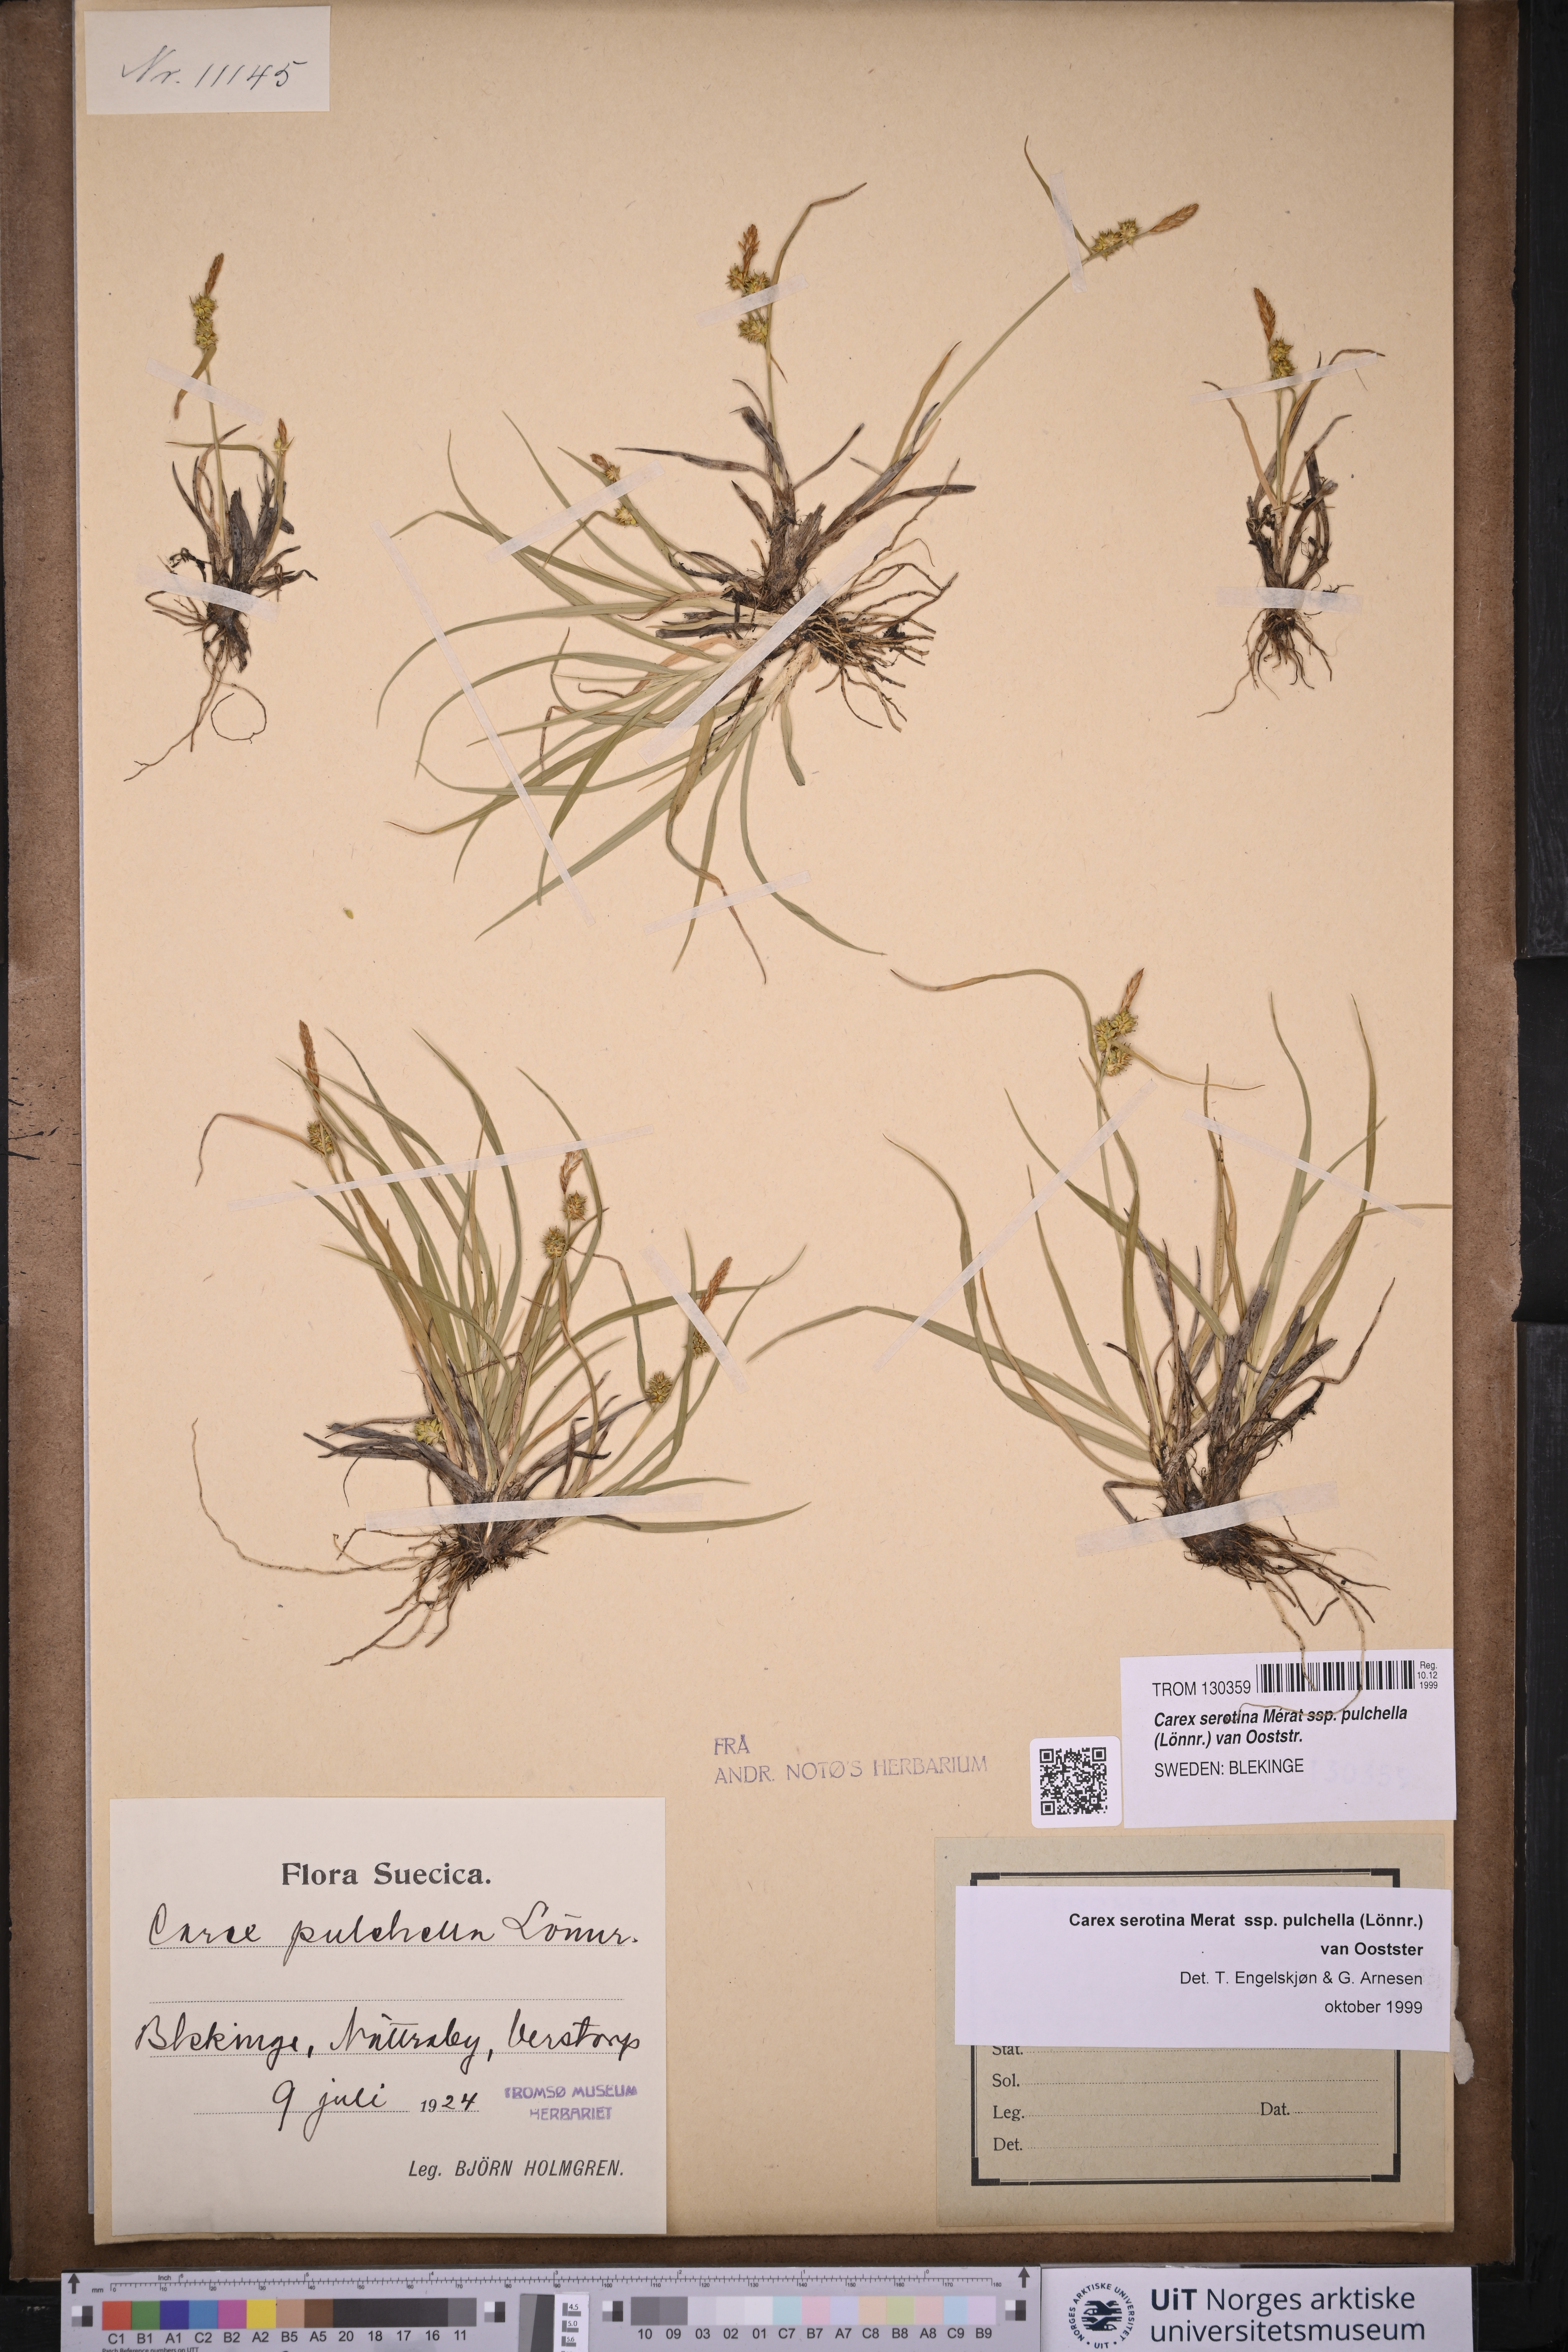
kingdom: Plantae
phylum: Tracheophyta
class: Liliopsida
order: Poales
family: Cyperaceae
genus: Carex
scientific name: Carex oederi
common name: Common & small-fruited yellow-sedge
